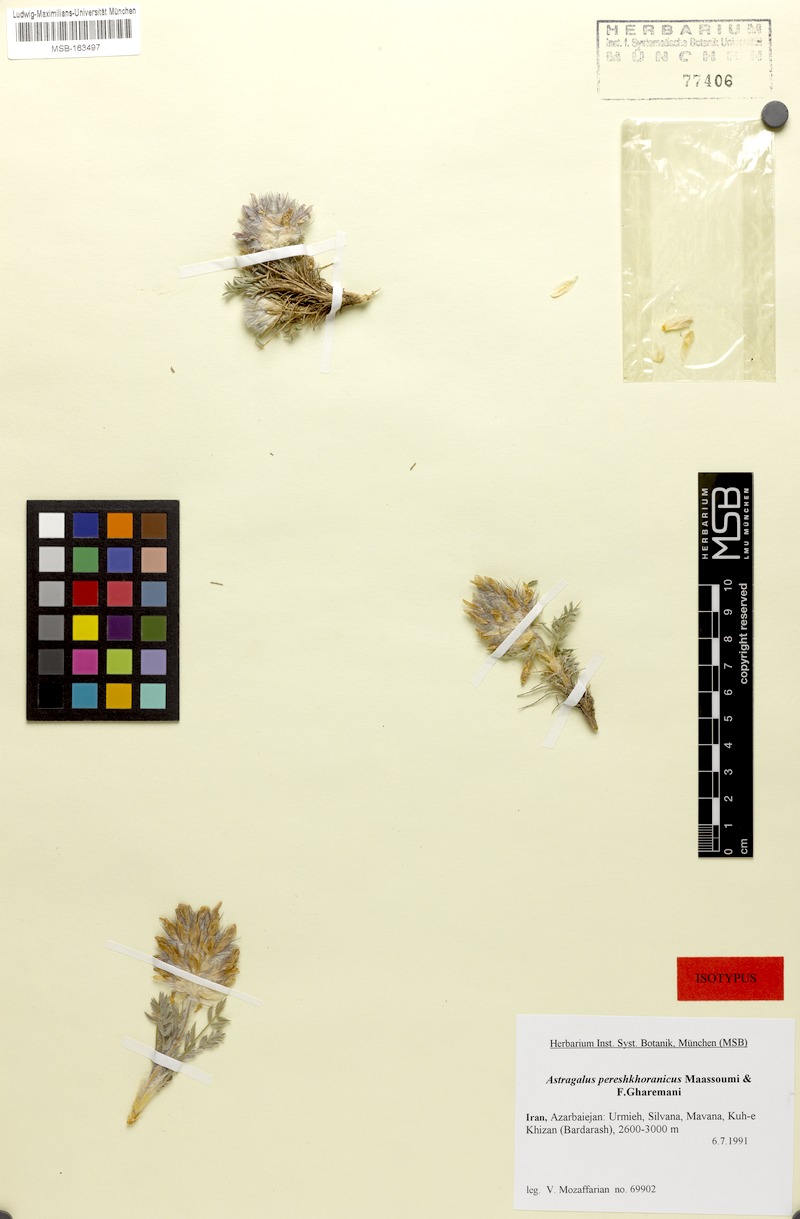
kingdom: Plantae
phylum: Tracheophyta
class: Magnoliopsida
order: Fabales
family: Fabaceae
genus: Astragalus
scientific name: Astragalus pereshkhoranicus
